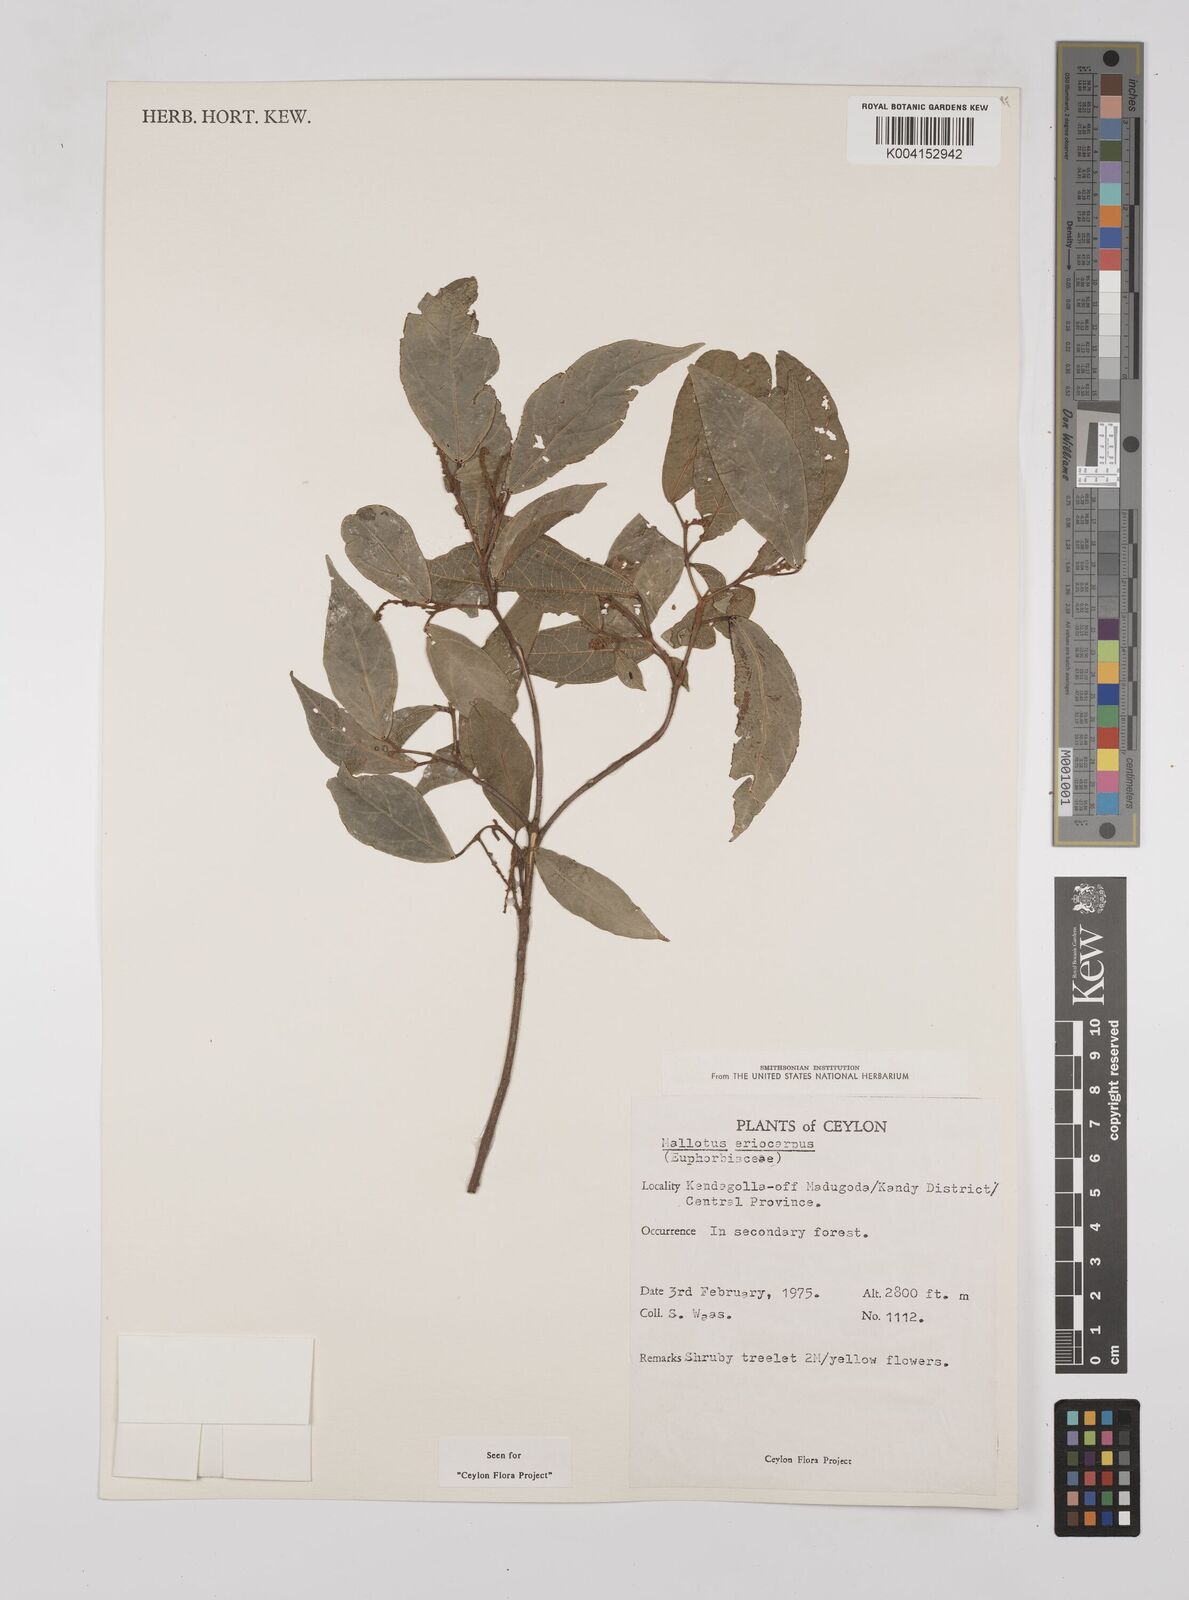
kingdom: Plantae
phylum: Tracheophyta
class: Magnoliopsida
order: Malpighiales
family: Euphorbiaceae
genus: Mallotus
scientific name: Mallotus eriocarpus
